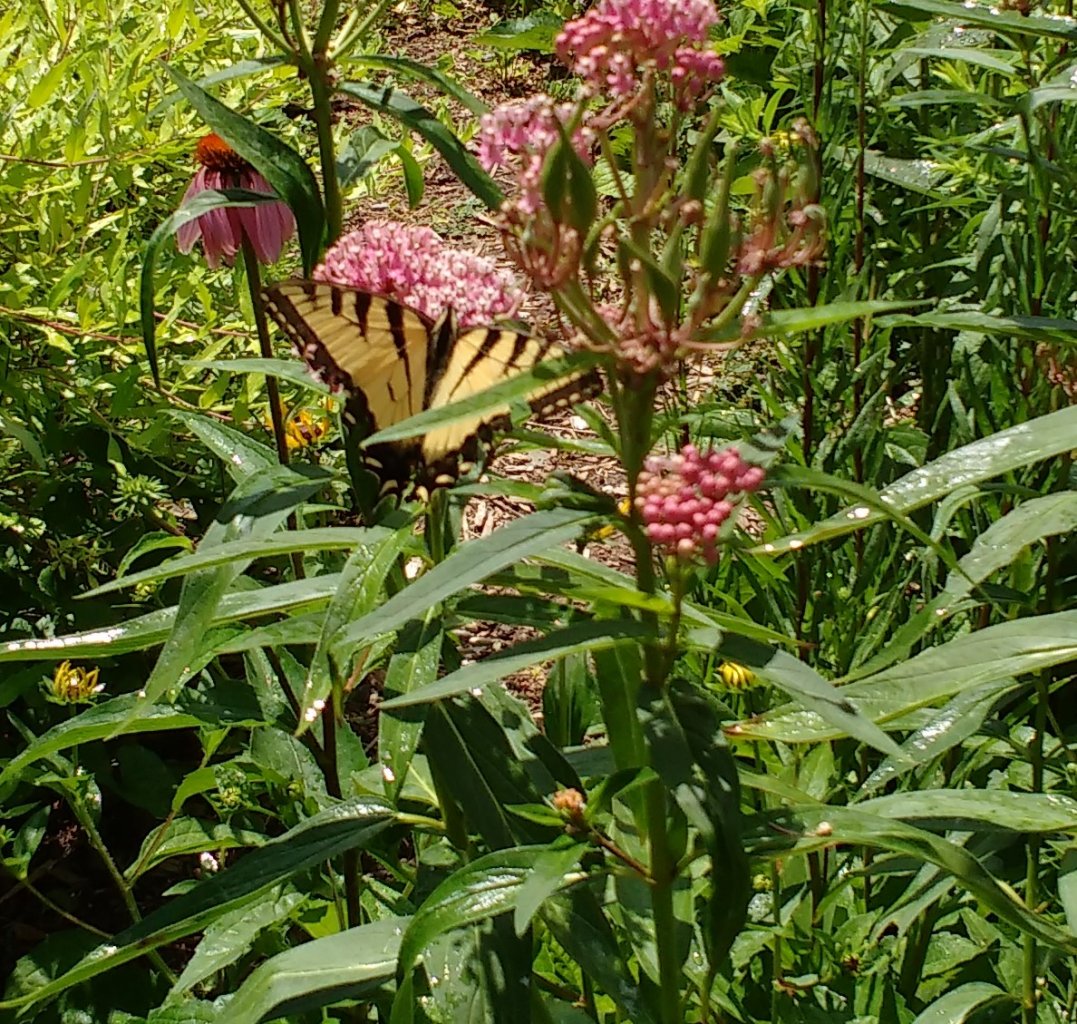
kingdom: Animalia
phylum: Arthropoda
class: Insecta
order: Lepidoptera
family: Papilionidae
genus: Pterourus
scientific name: Pterourus glaucus
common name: Eastern Tiger Swallowtail
